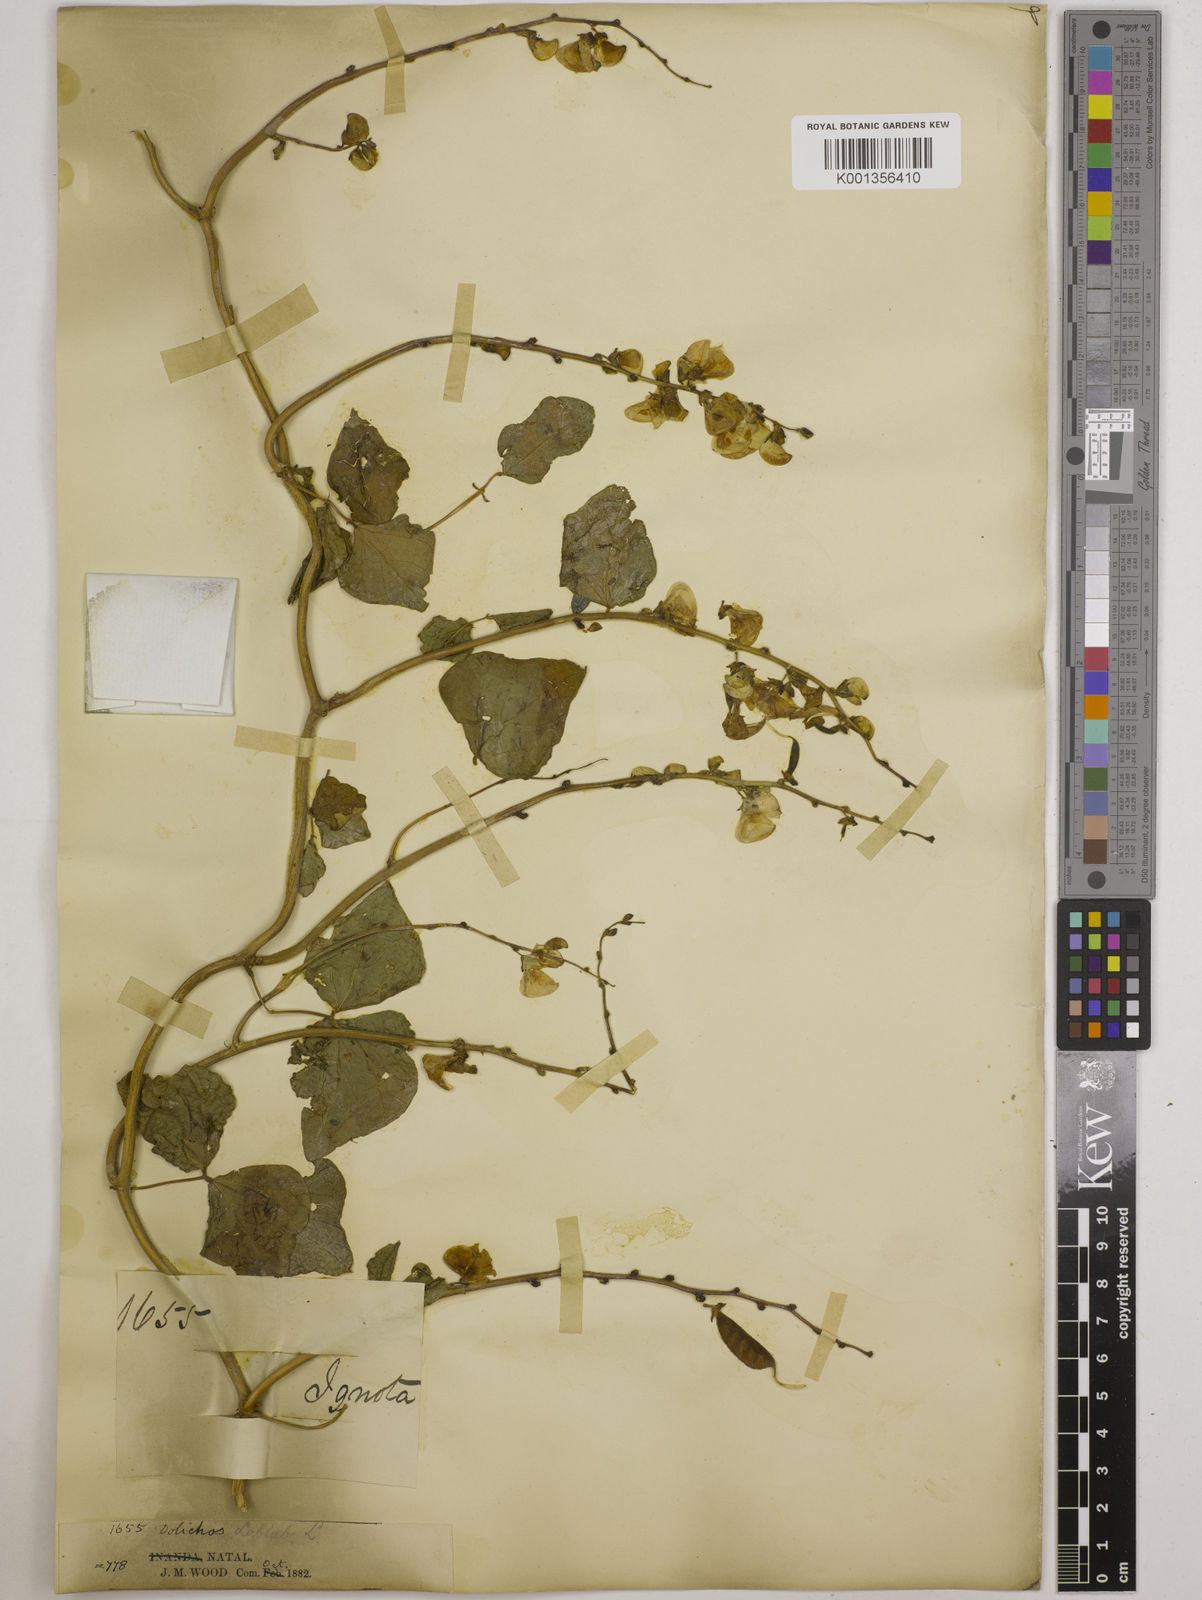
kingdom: Plantae
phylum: Tracheophyta
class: Magnoliopsida
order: Fabales
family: Fabaceae
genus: Lablab
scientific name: Lablab purpureus
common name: Lablab-bean
